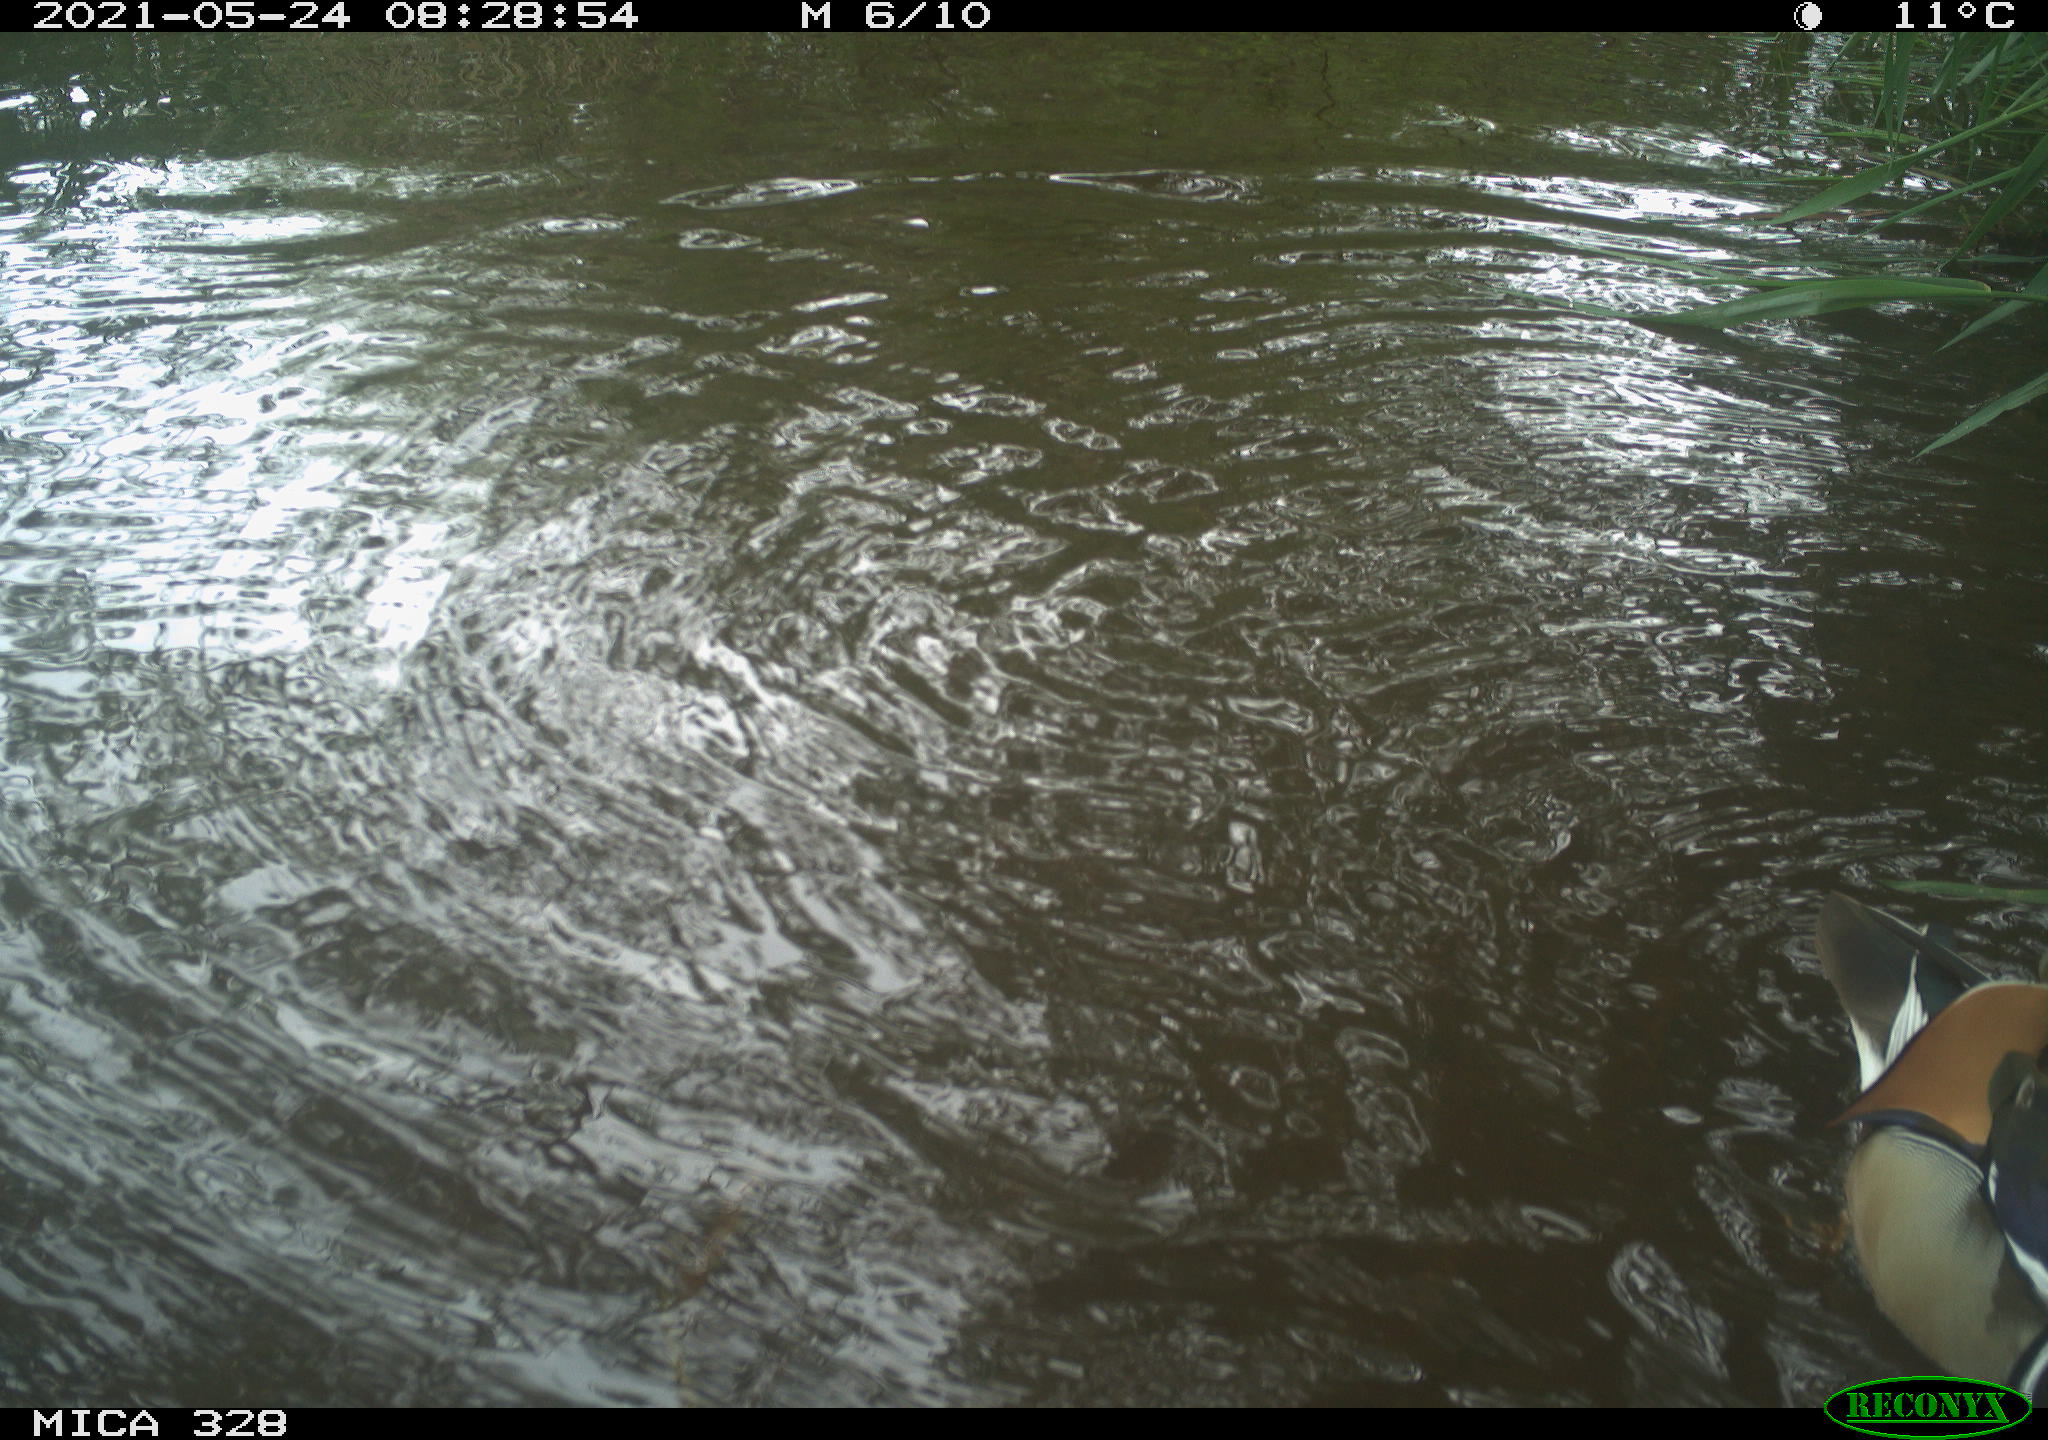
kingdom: Animalia
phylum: Chordata
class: Aves
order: Anseriformes
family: Anatidae
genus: Aix
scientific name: Aix galericulata
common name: Mandarin duck
